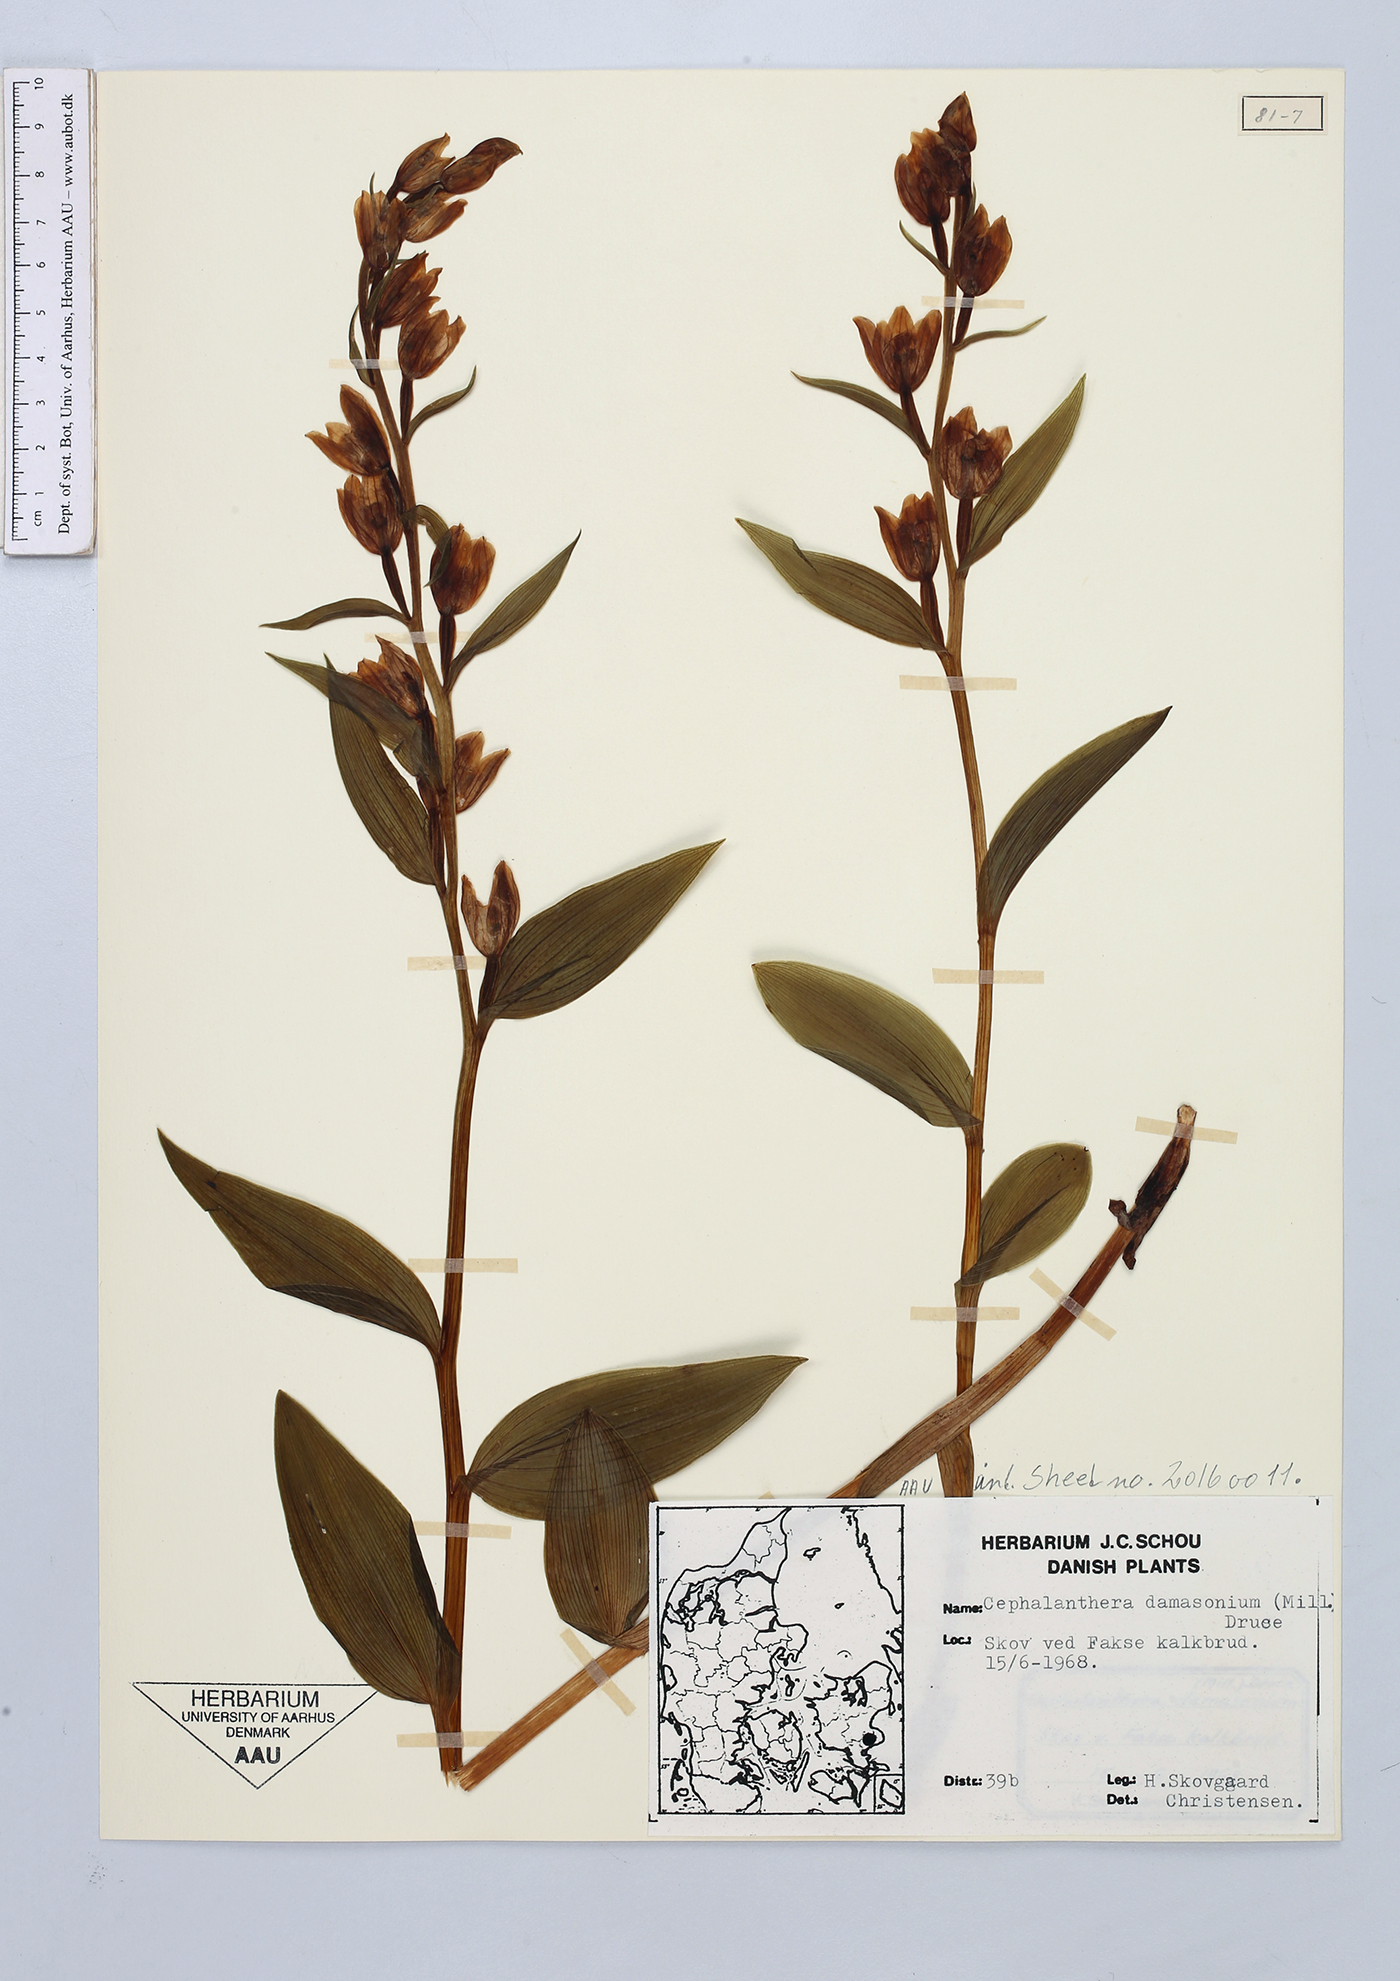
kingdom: Plantae
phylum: Tracheophyta
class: Liliopsida
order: Asparagales
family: Orchidaceae
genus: Cephalanthera
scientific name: Cephalanthera damasonium
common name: White helleborine
